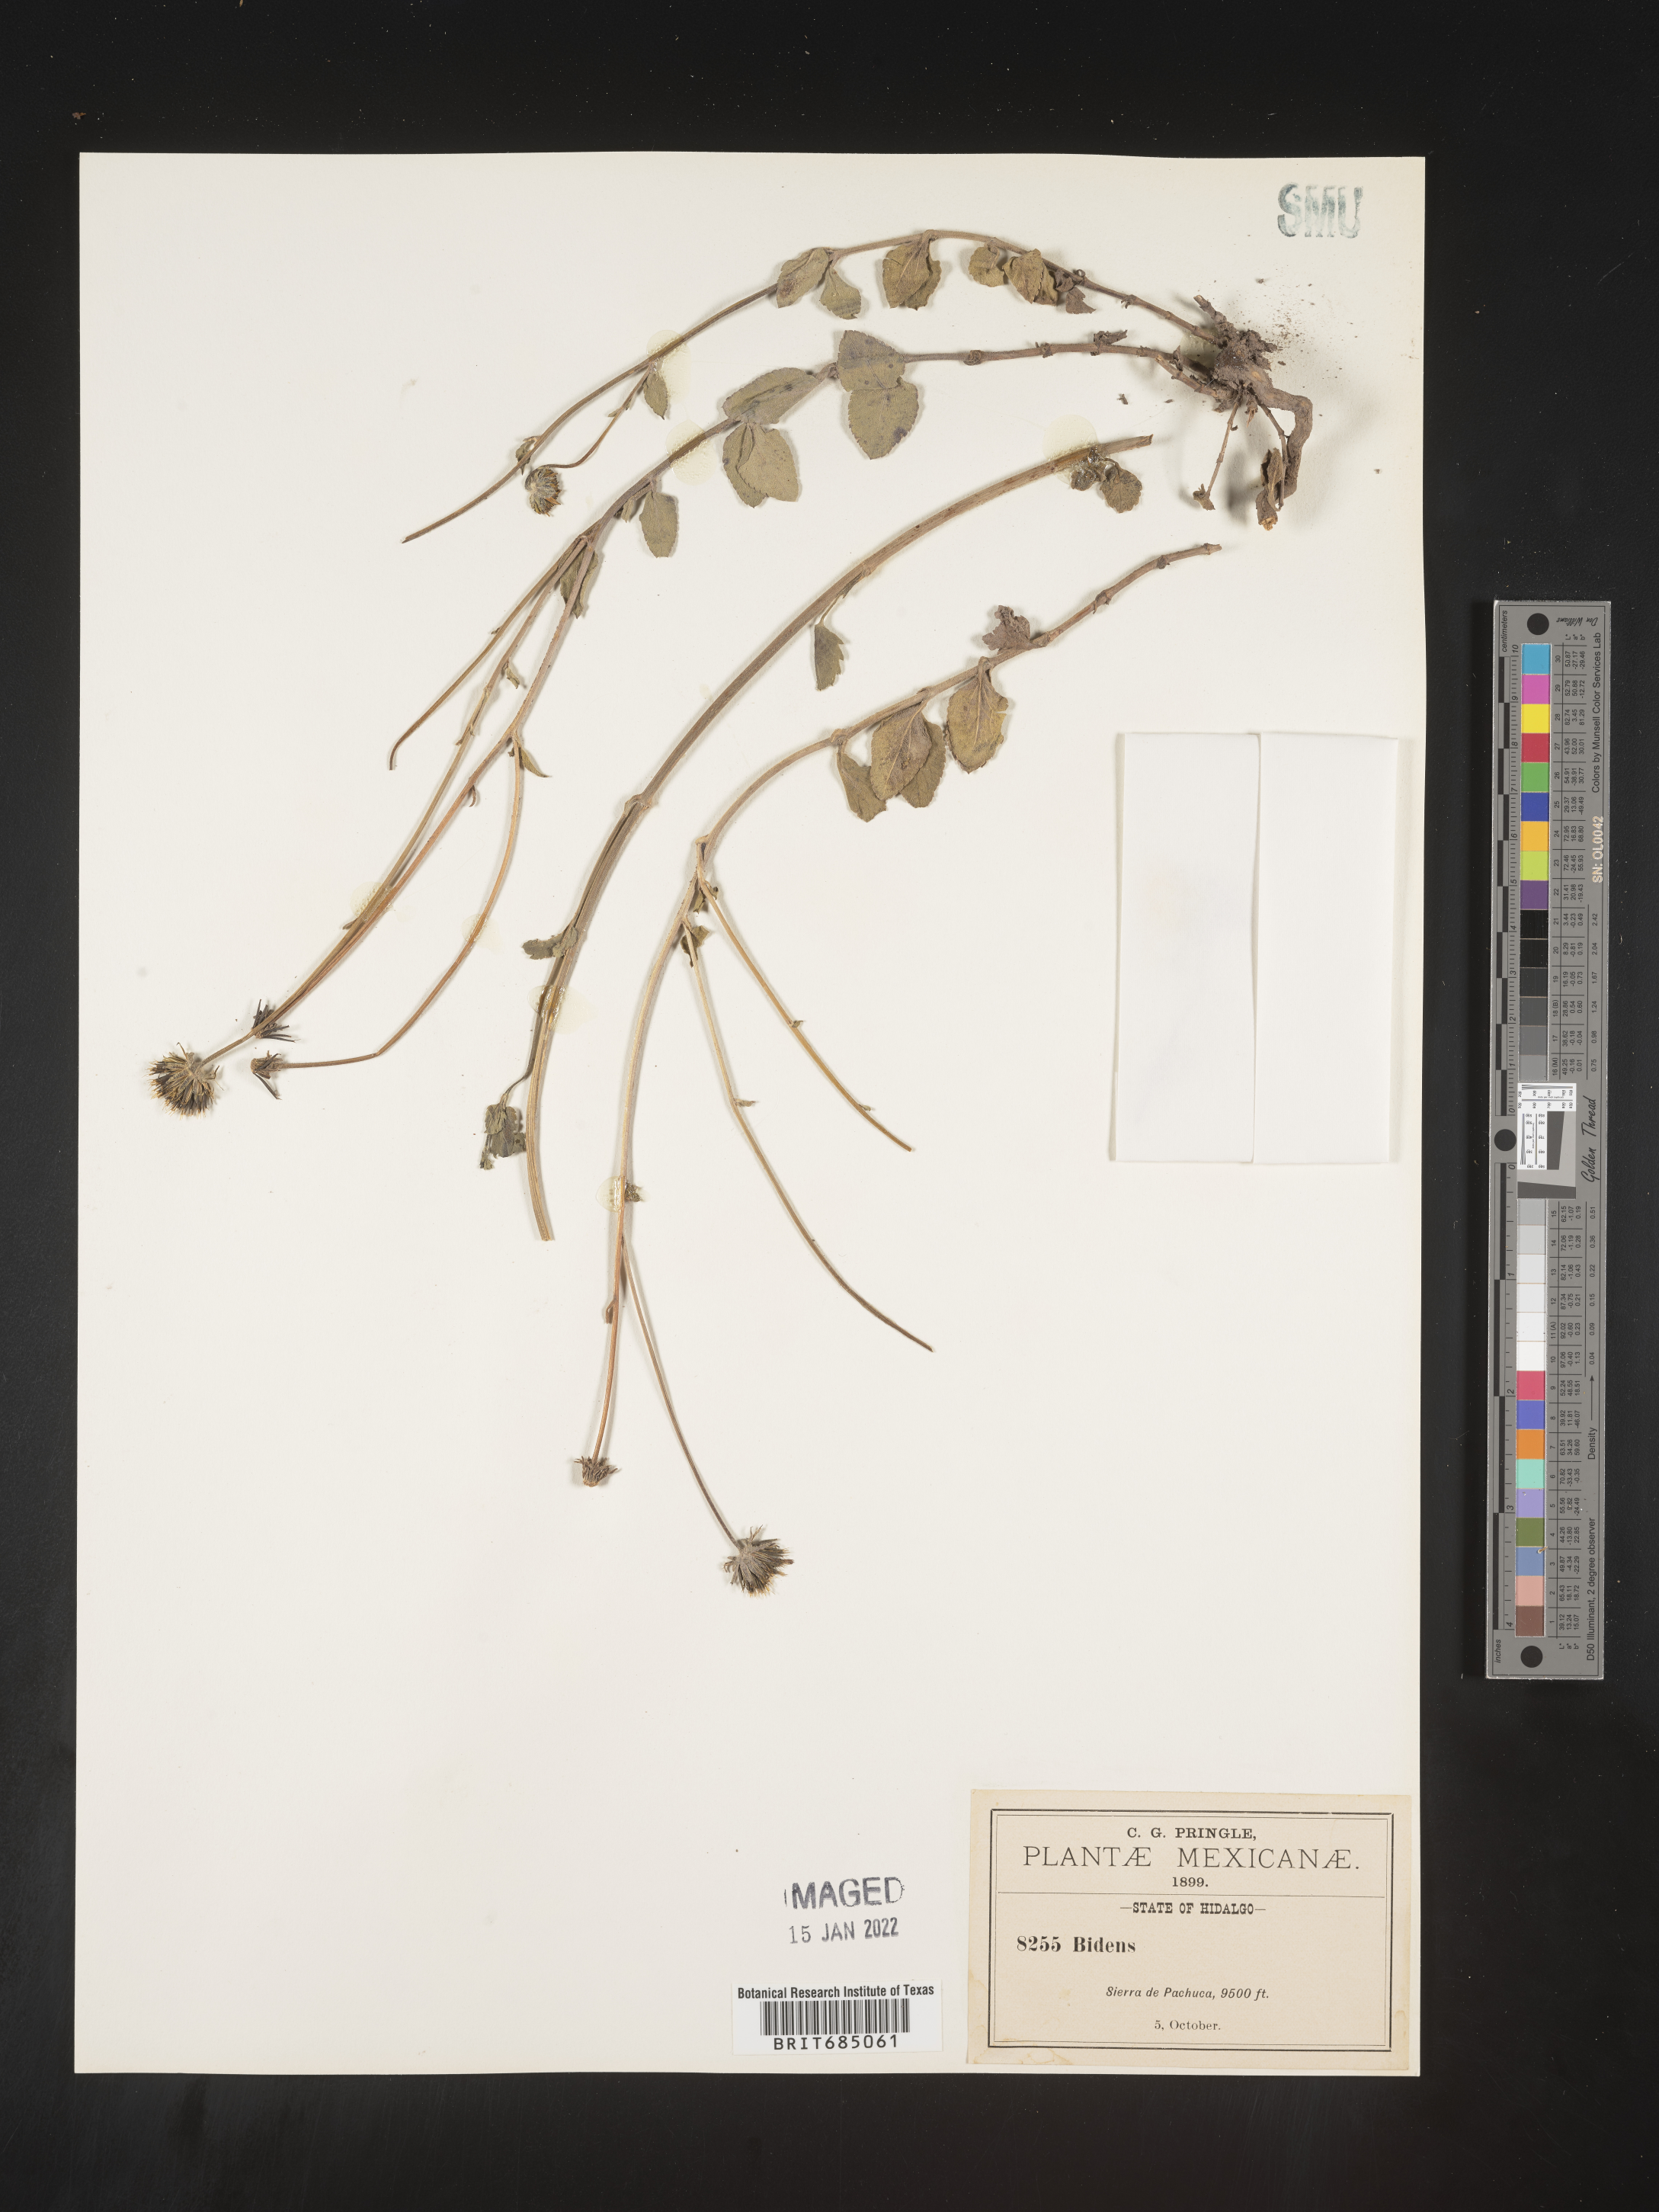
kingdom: Plantae
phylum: Tracheophyta
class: Magnoliopsida
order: Asterales
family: Asteraceae
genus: Bidens
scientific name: Bidens
